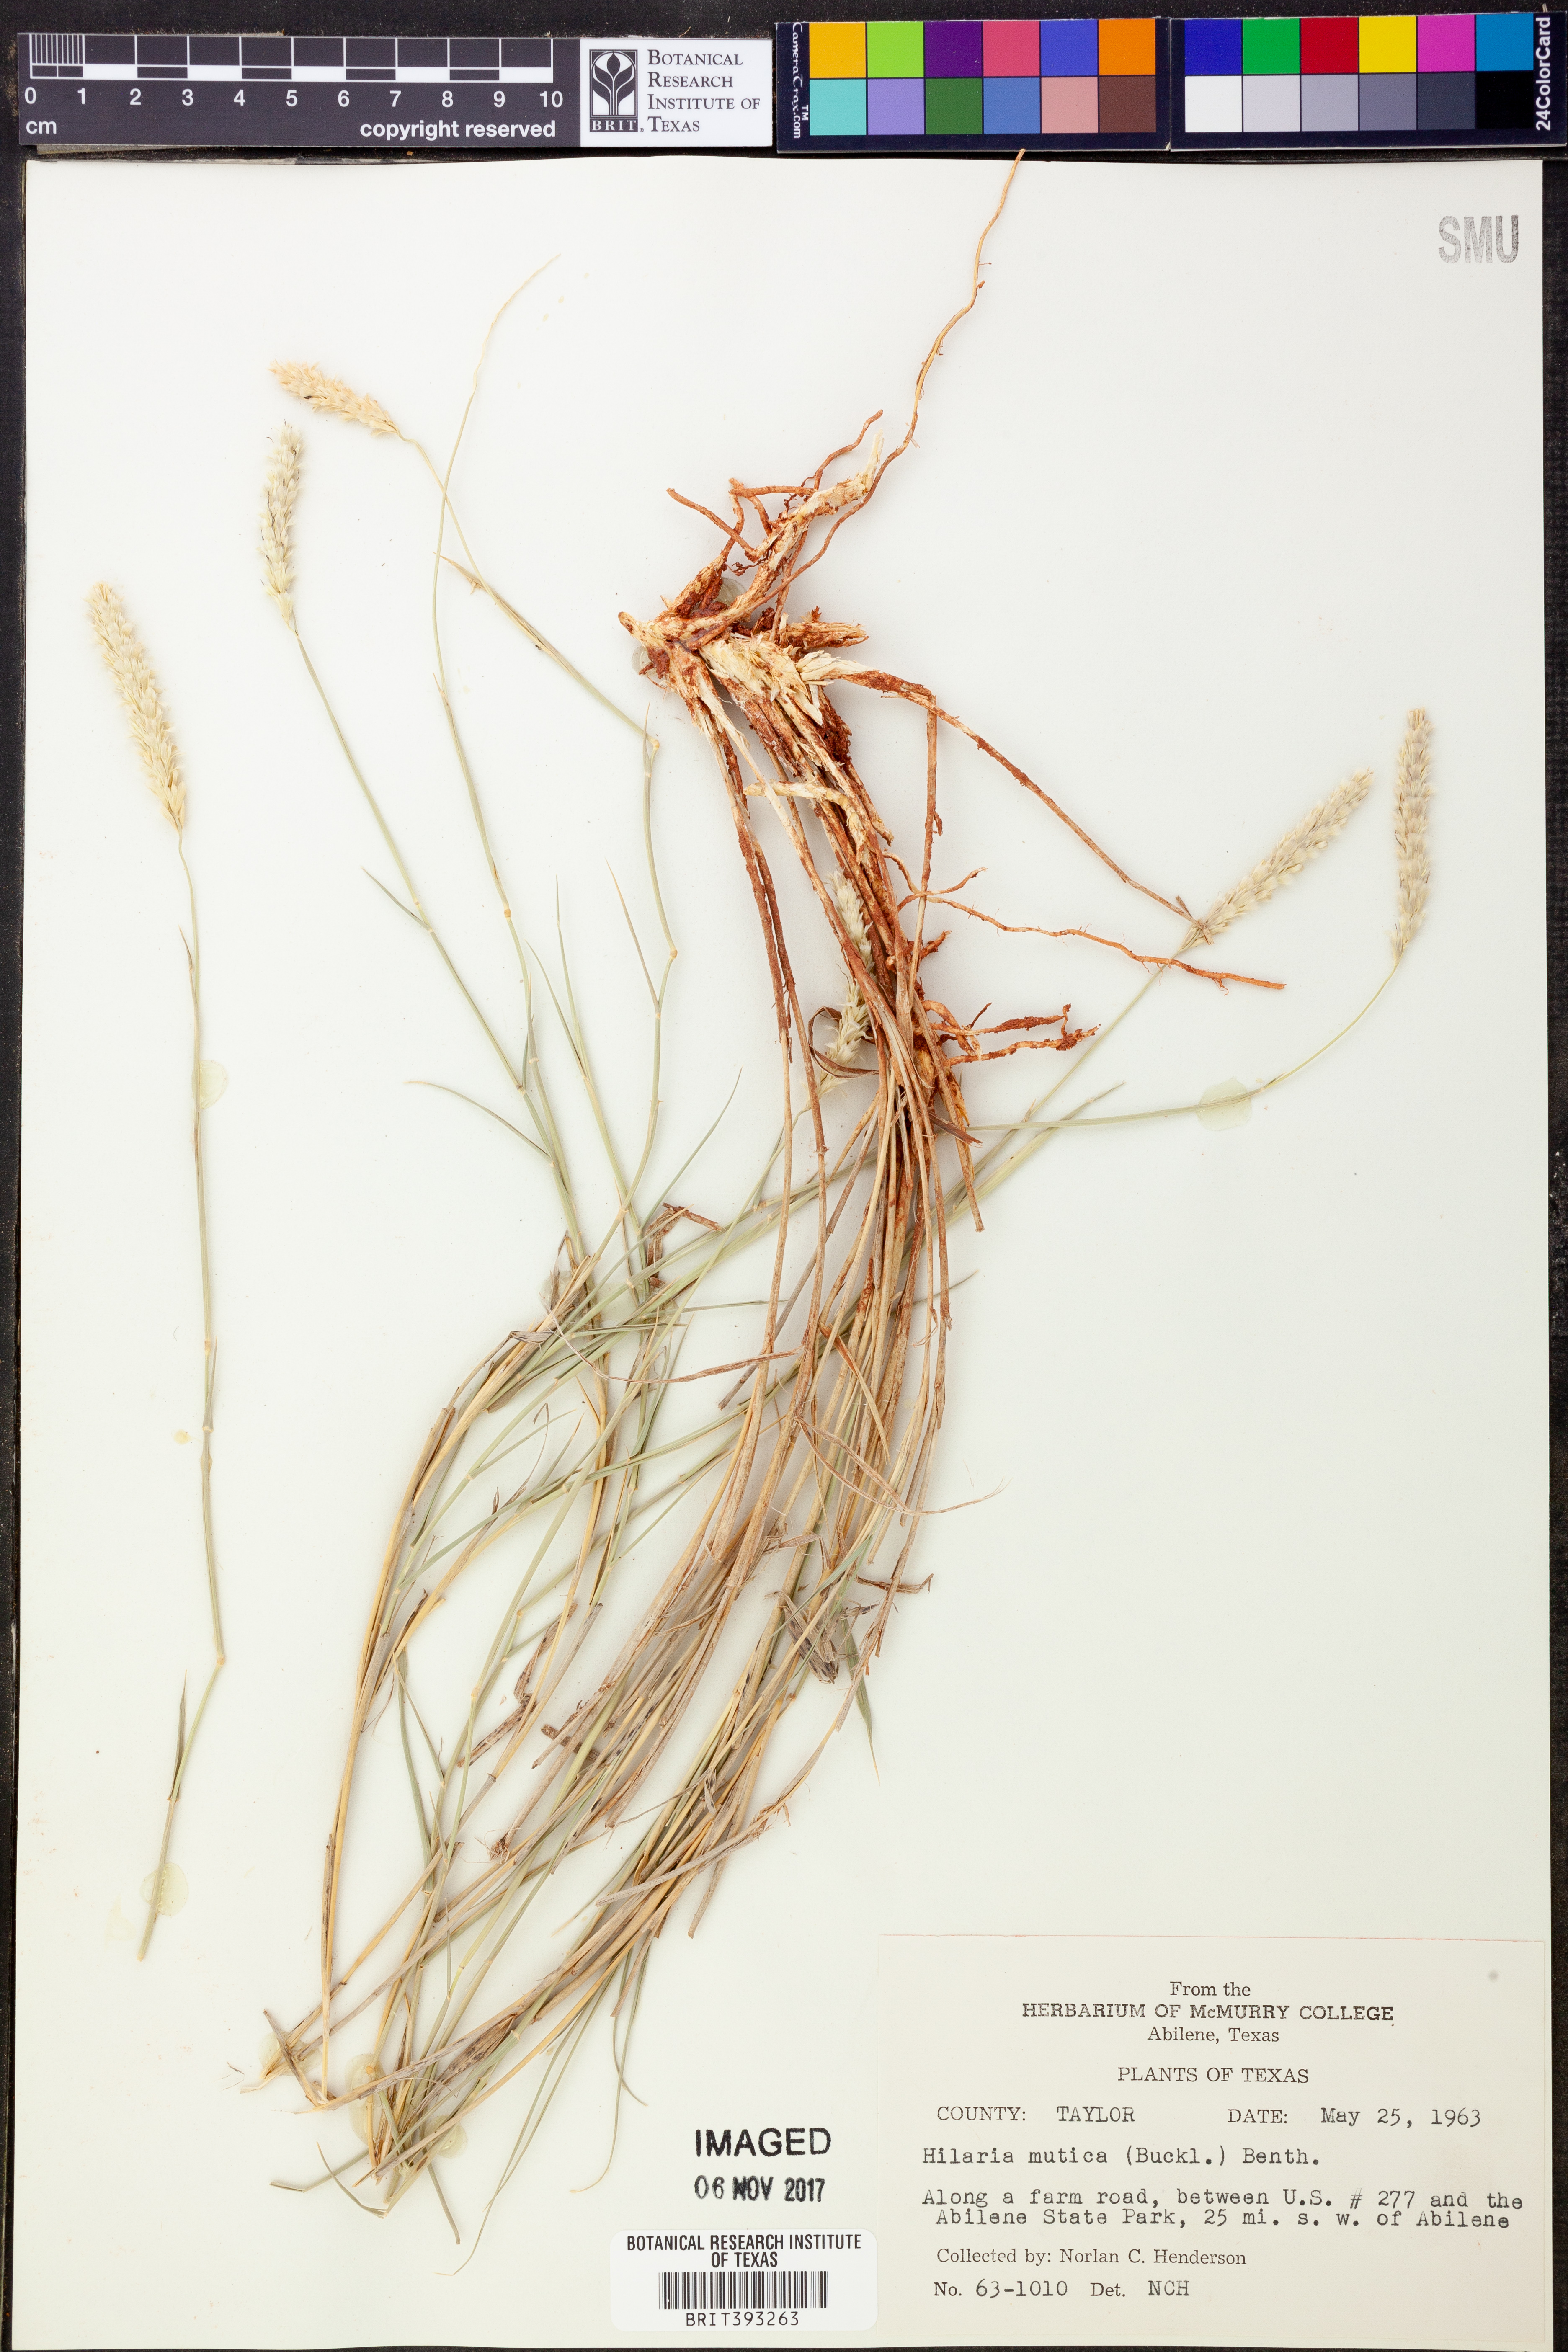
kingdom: Plantae
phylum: Tracheophyta
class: Liliopsida
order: Poales
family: Poaceae
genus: Hilaria
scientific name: Hilaria mutica
